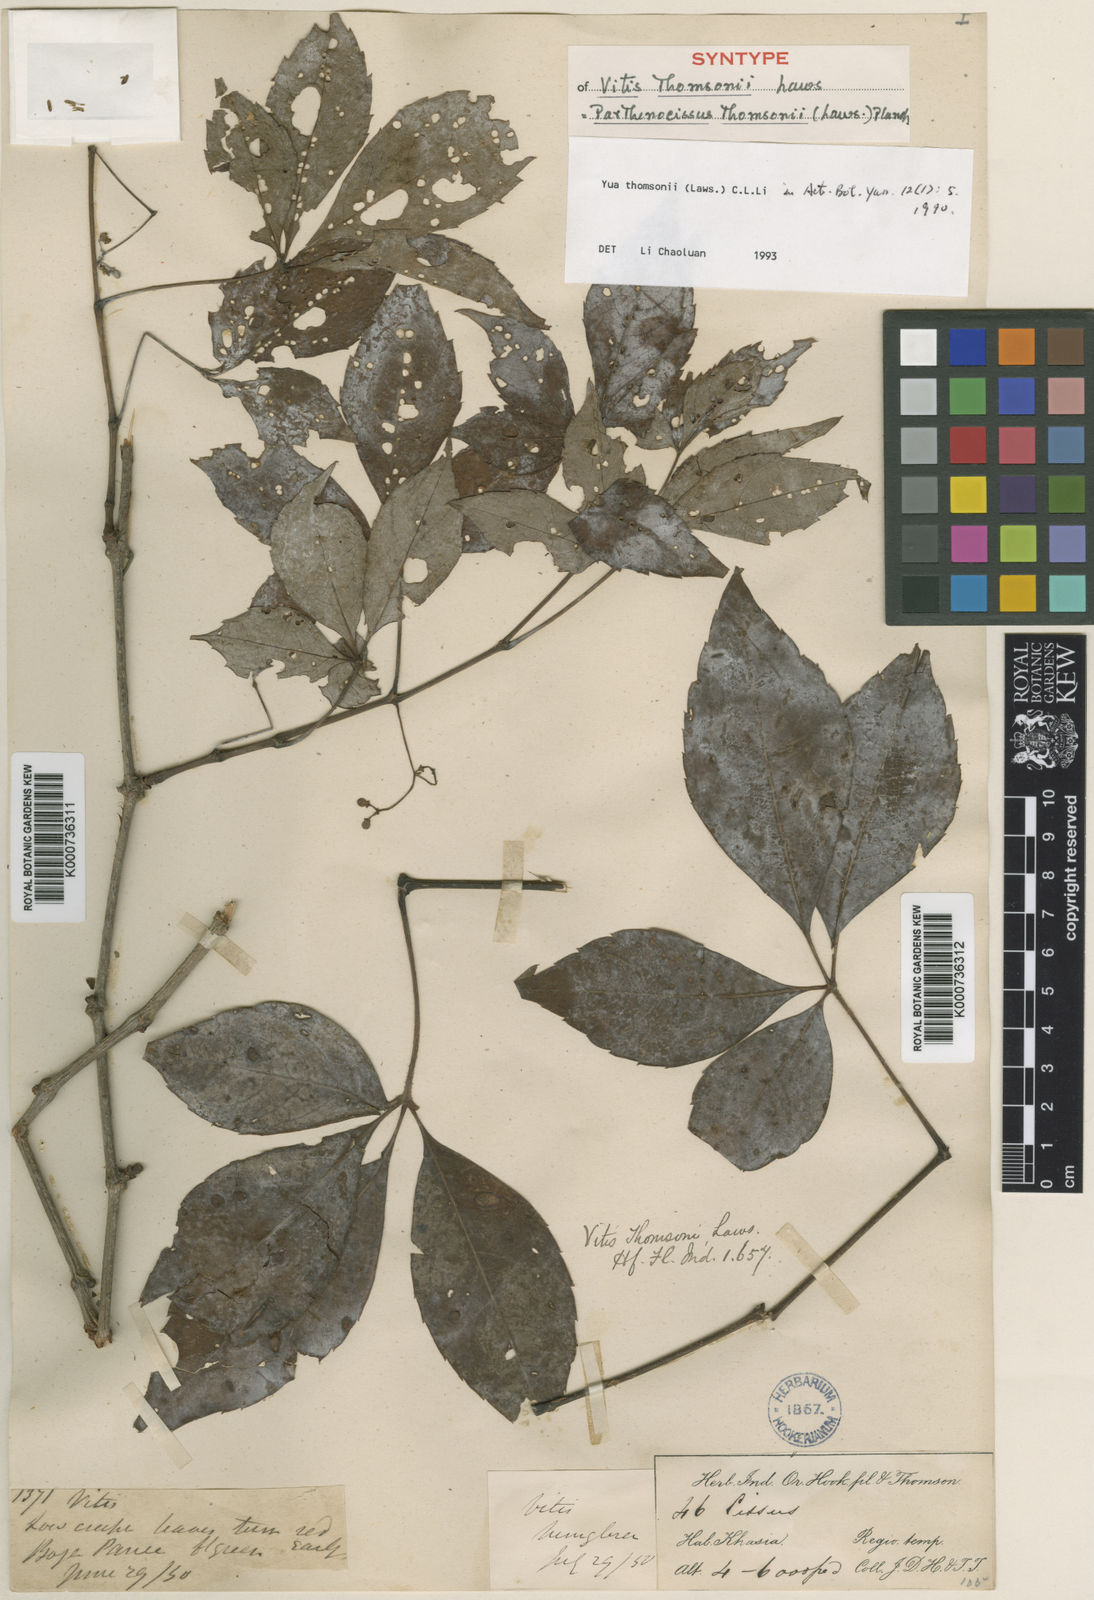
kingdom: Plantae
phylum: Tracheophyta
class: Magnoliopsida
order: Vitales
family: Vitaceae
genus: Yua
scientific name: Yua thomsonii
